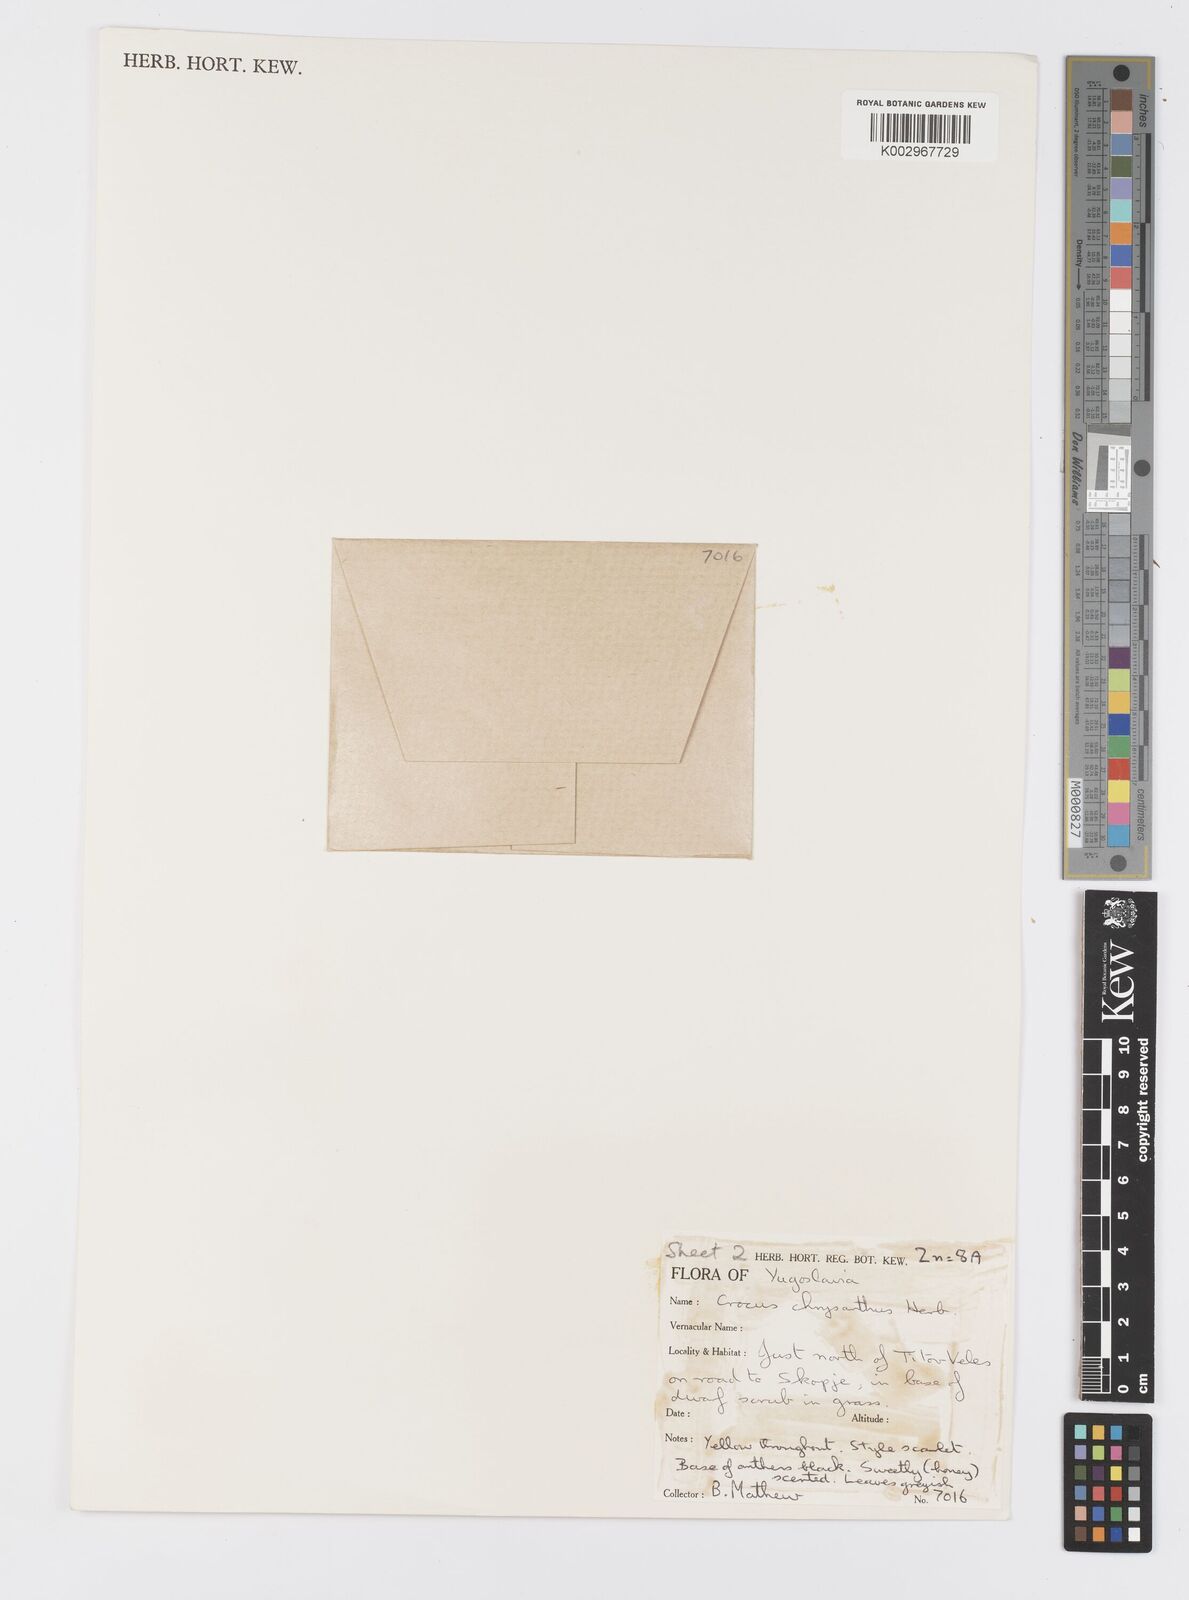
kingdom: Plantae
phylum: Tracheophyta
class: Liliopsida
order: Asparagales
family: Iridaceae
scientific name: Iridaceae
